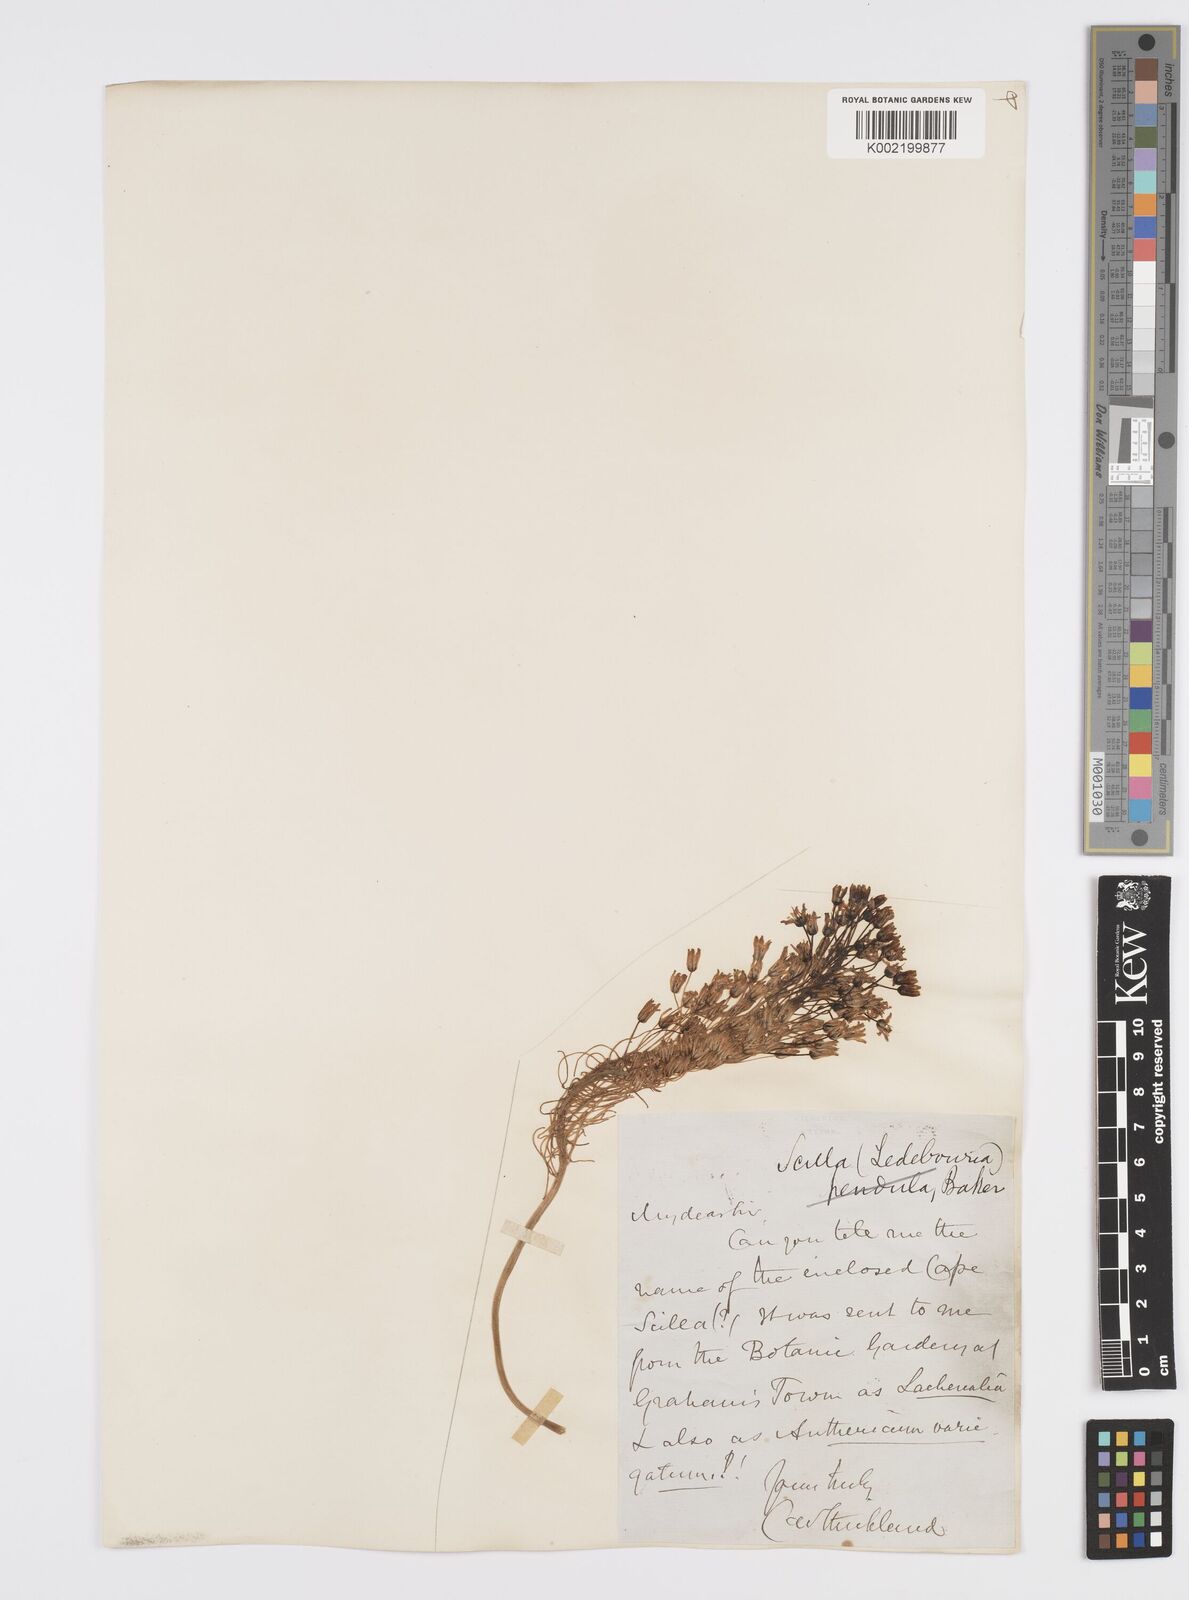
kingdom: Plantae
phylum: Tracheophyta
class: Liliopsida
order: Asparagales
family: Asparagaceae
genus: Ledebouria
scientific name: Ledebouria floribunda
